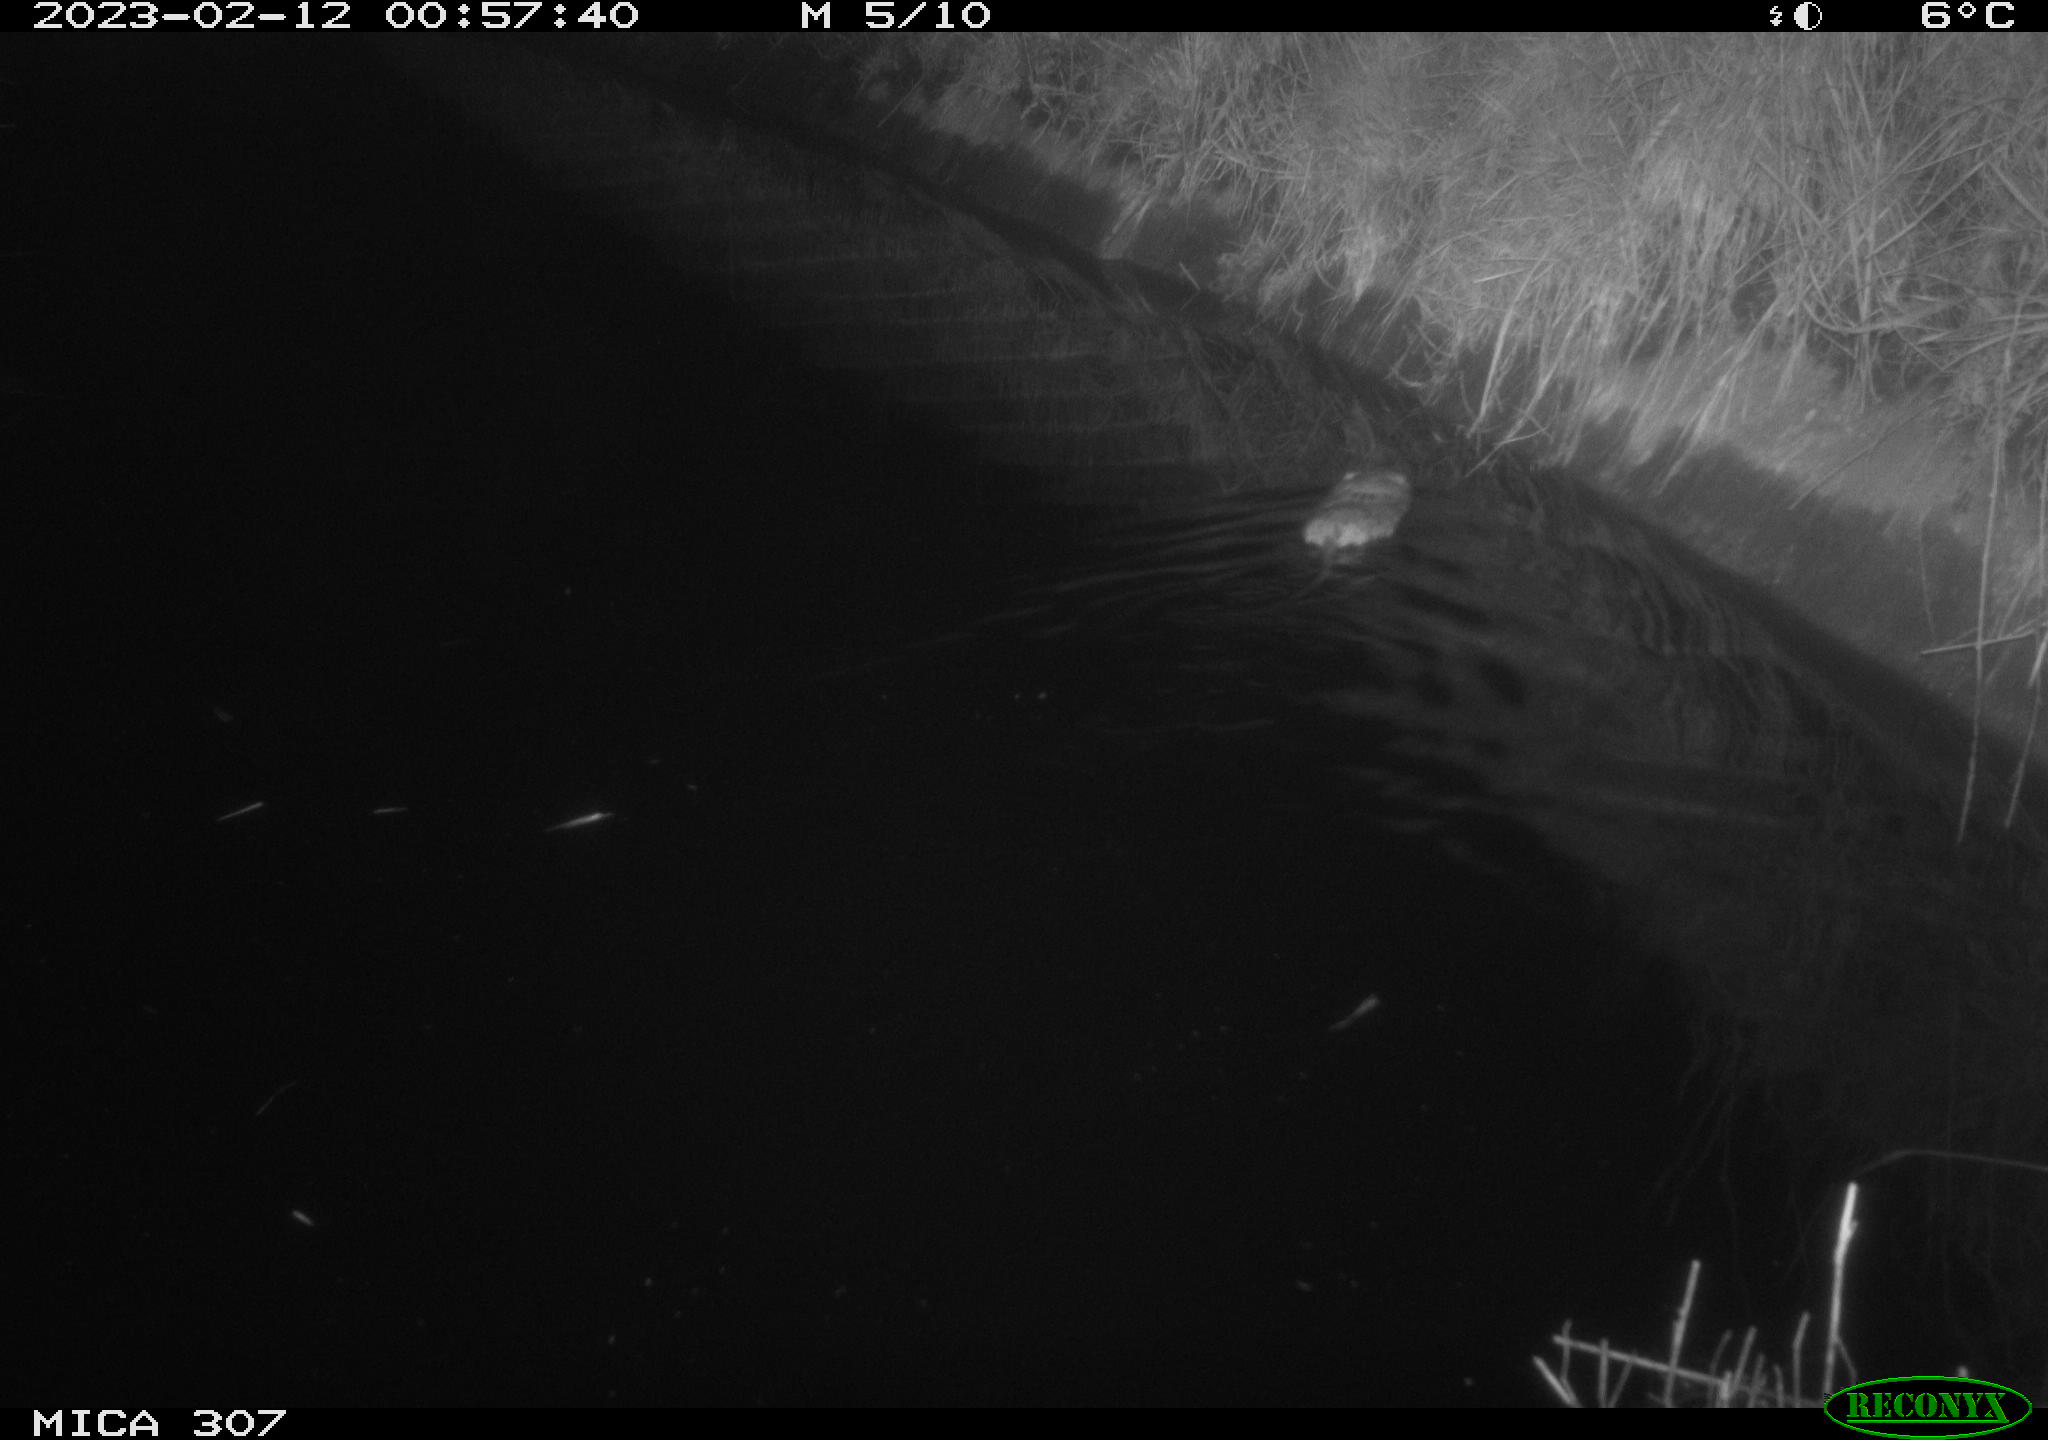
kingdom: Animalia
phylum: Chordata
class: Mammalia
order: Rodentia
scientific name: Rodentia
